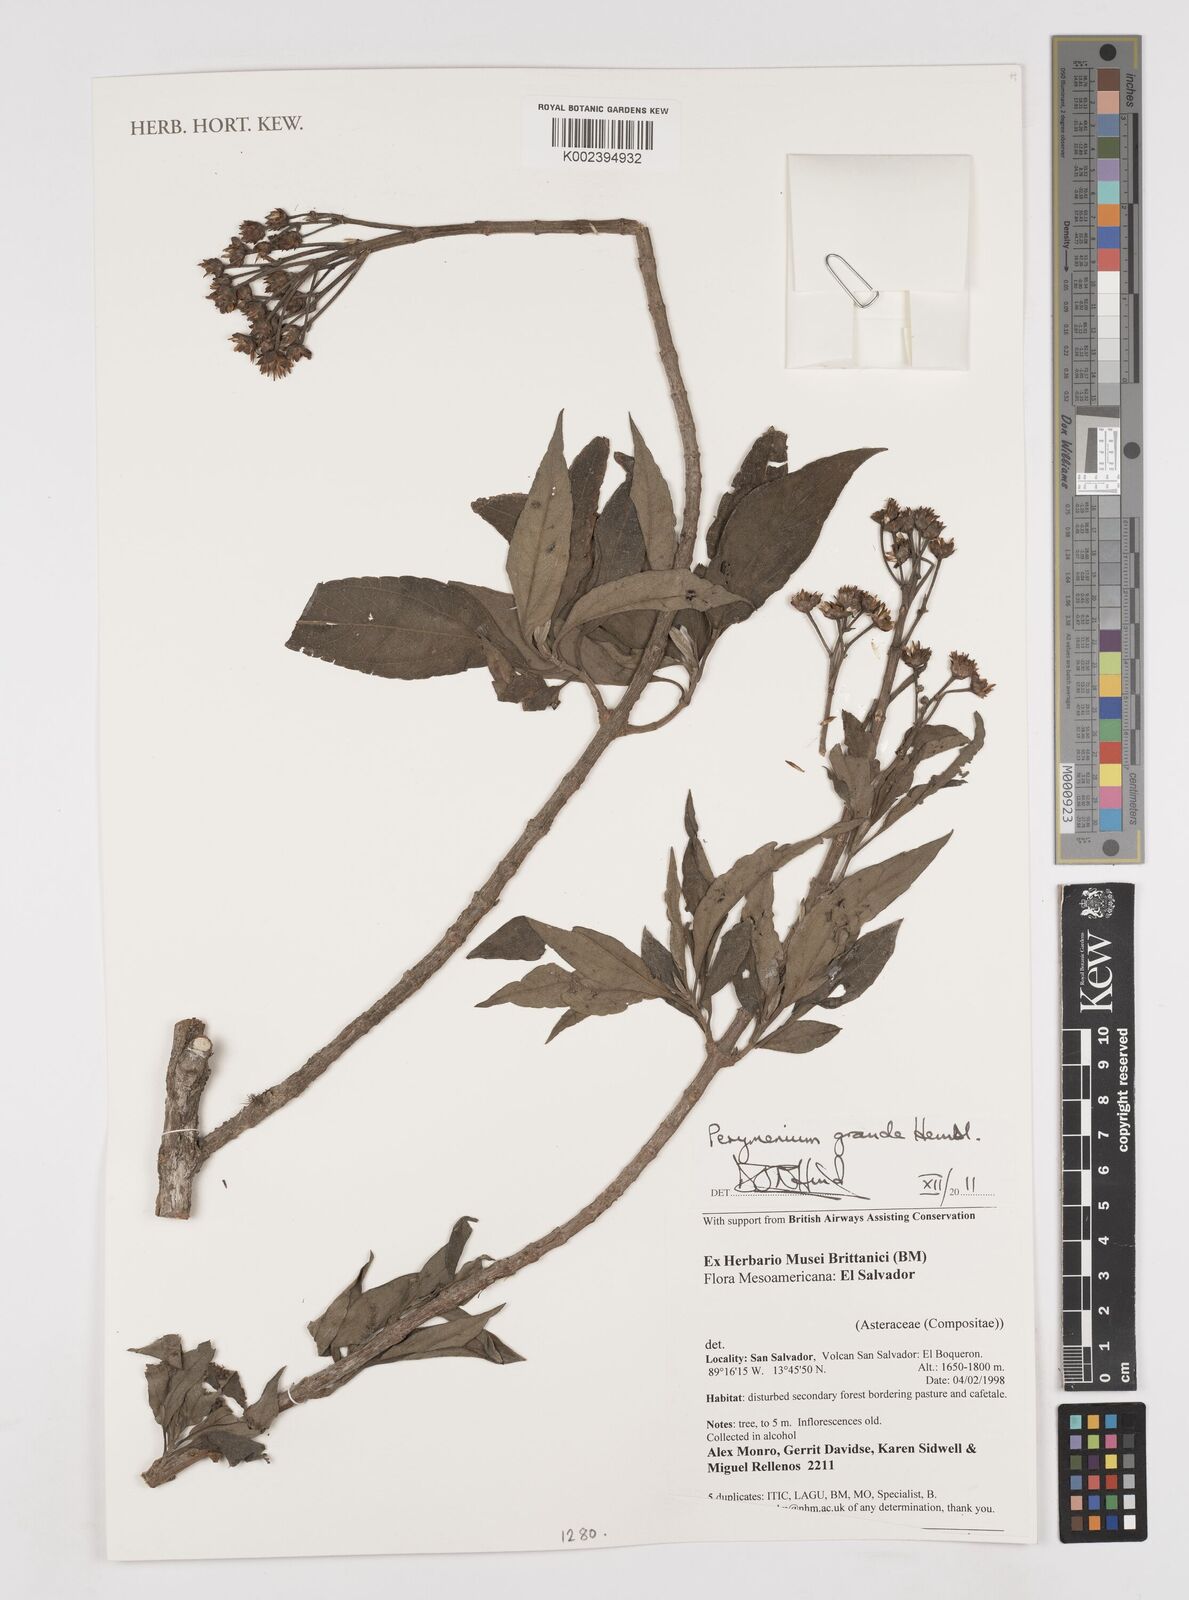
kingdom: Plantae
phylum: Tracheophyta
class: Magnoliopsida
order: Asterales
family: Asteraceae
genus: Perymenium
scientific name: Perymenium grande
